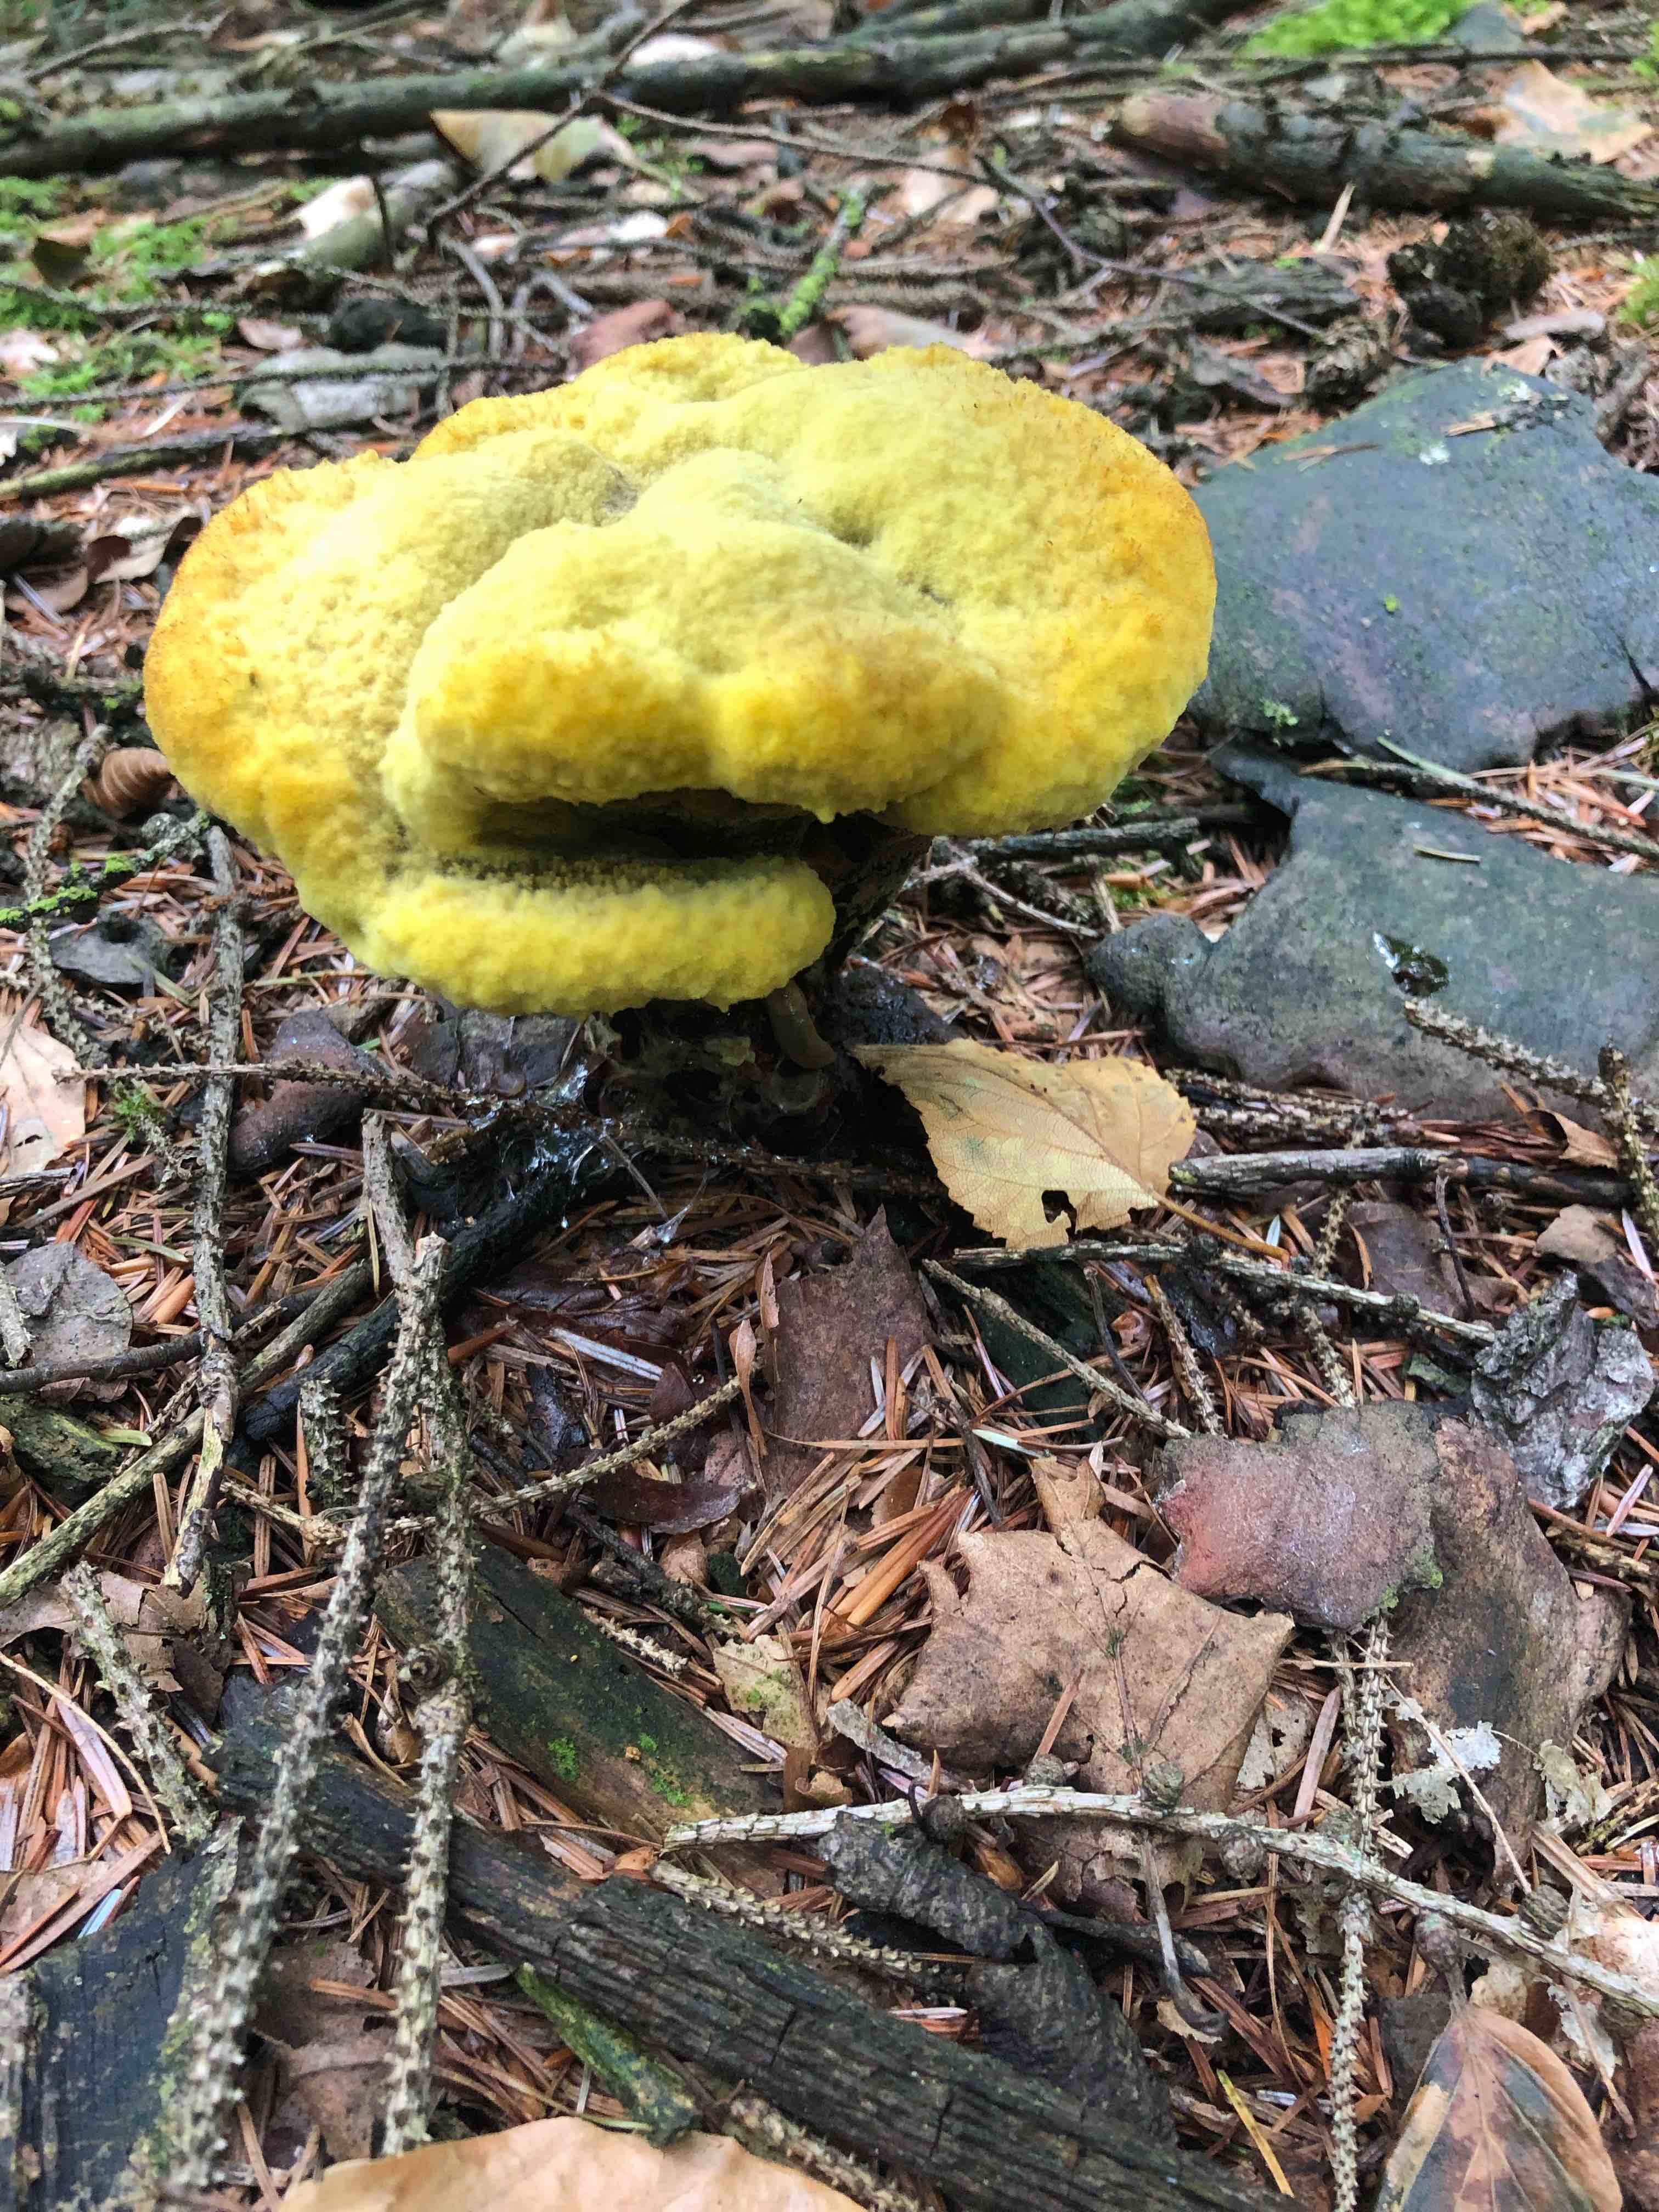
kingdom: Fungi
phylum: Basidiomycota
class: Agaricomycetes
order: Polyporales
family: Laetiporaceae
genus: Phaeolus
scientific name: Phaeolus schweinitzii
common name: brunporesvamp
